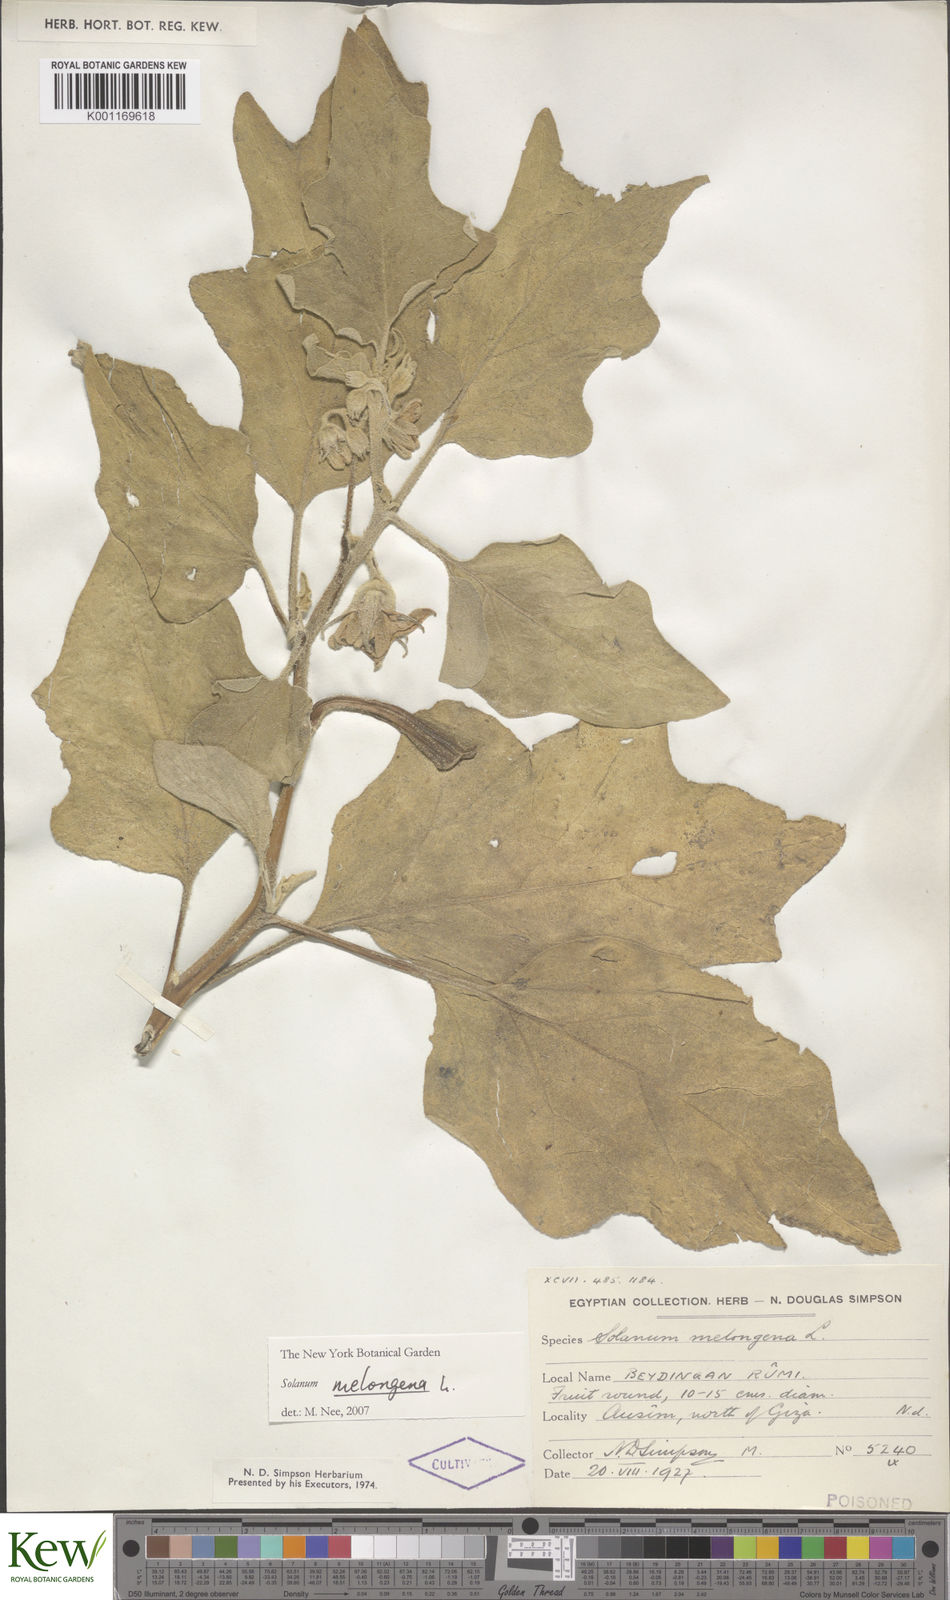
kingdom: Plantae
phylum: Tracheophyta
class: Magnoliopsida
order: Solanales
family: Solanaceae
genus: Solanum
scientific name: Solanum melongena
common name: Eggplant
